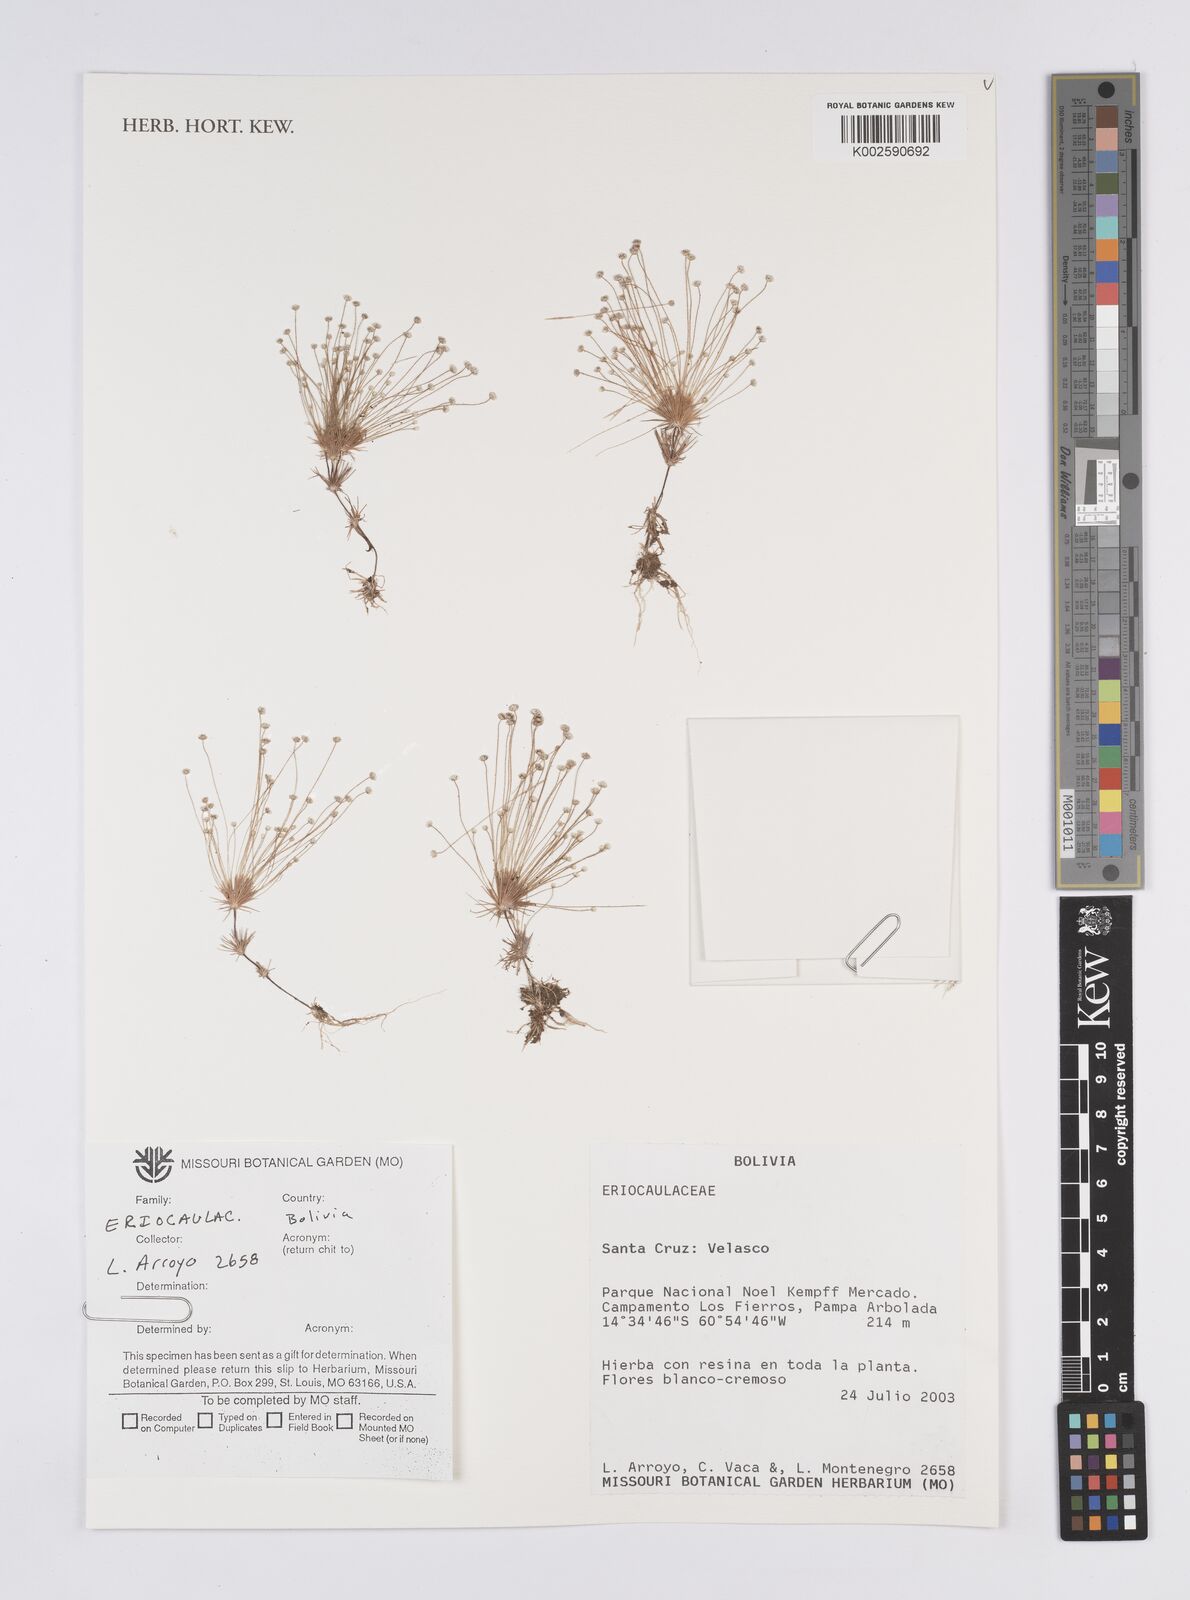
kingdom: Plantae
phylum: Tracheophyta
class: Liliopsida
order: Poales
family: Eriocaulaceae
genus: Syngonanthus
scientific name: Syngonanthus
